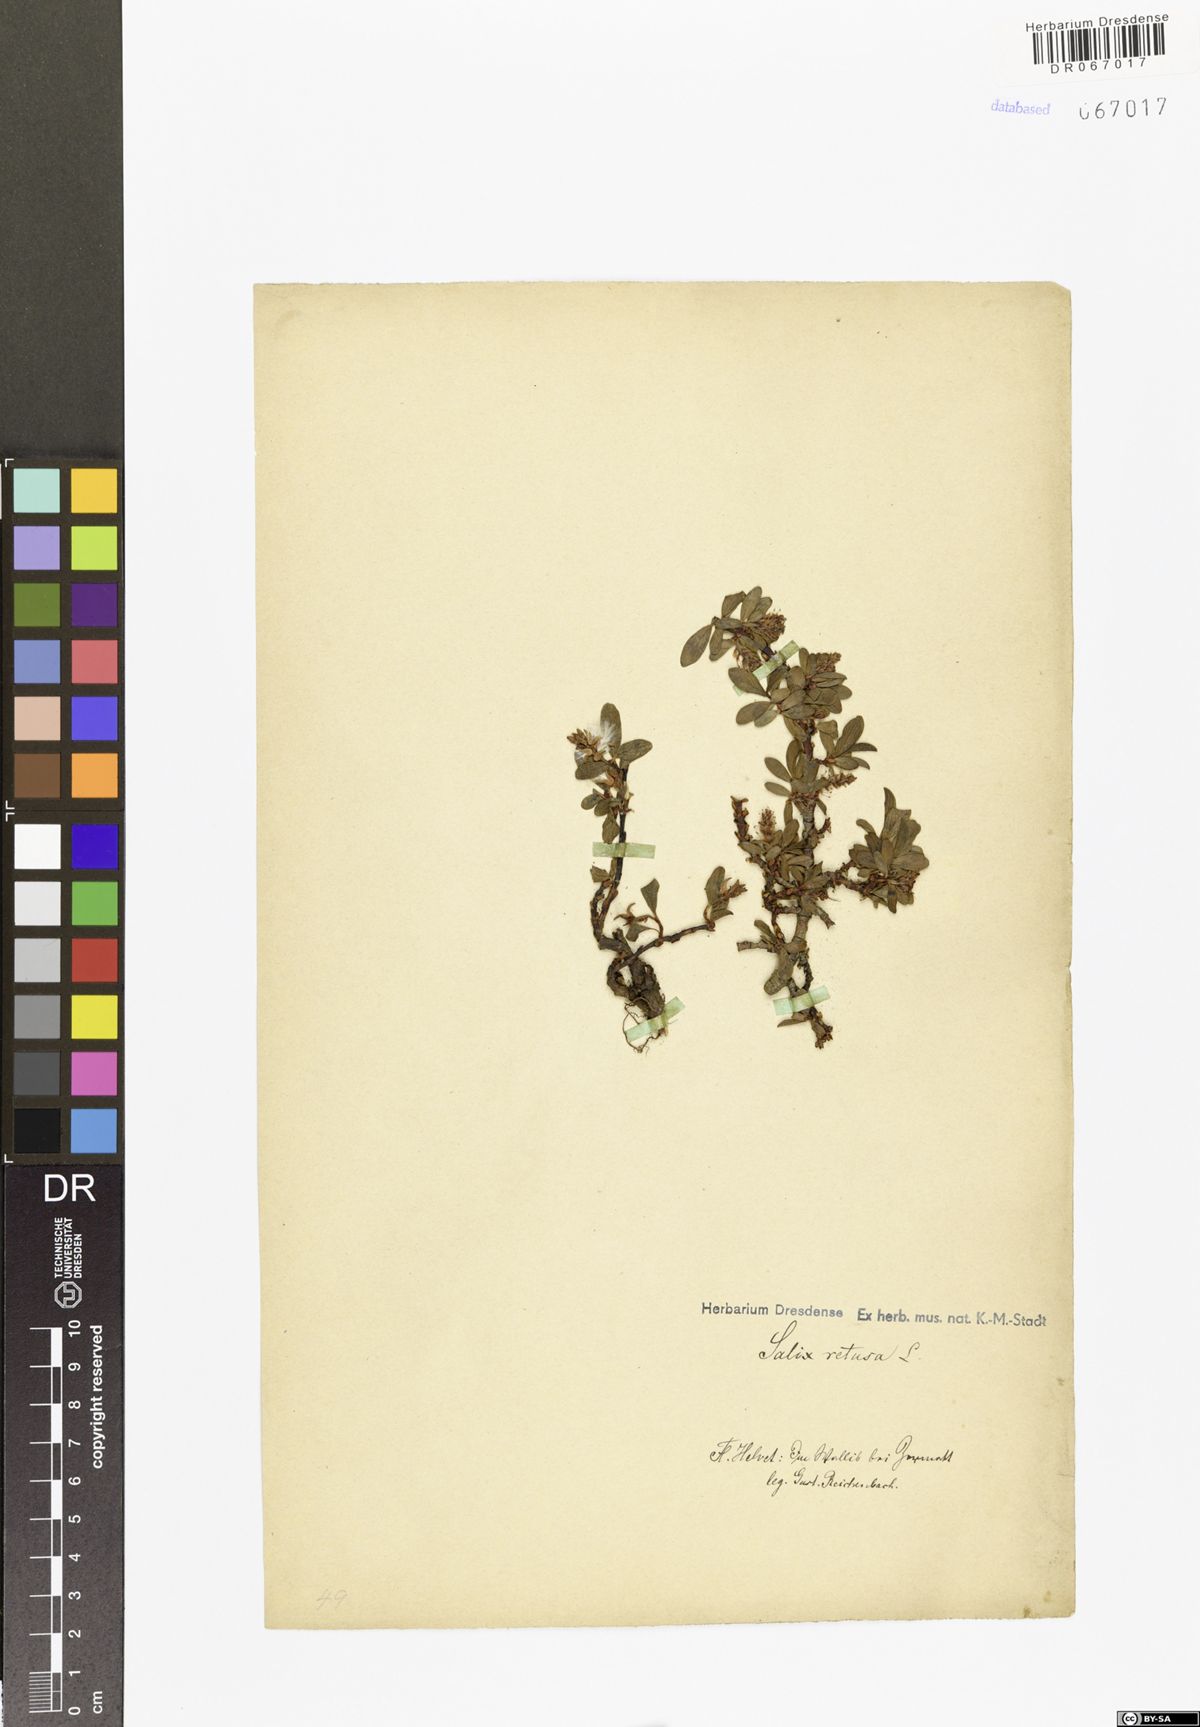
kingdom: Plantae
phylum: Tracheophyta
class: Magnoliopsida
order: Malpighiales
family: Salicaceae
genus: Salix
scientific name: Salix retusa
